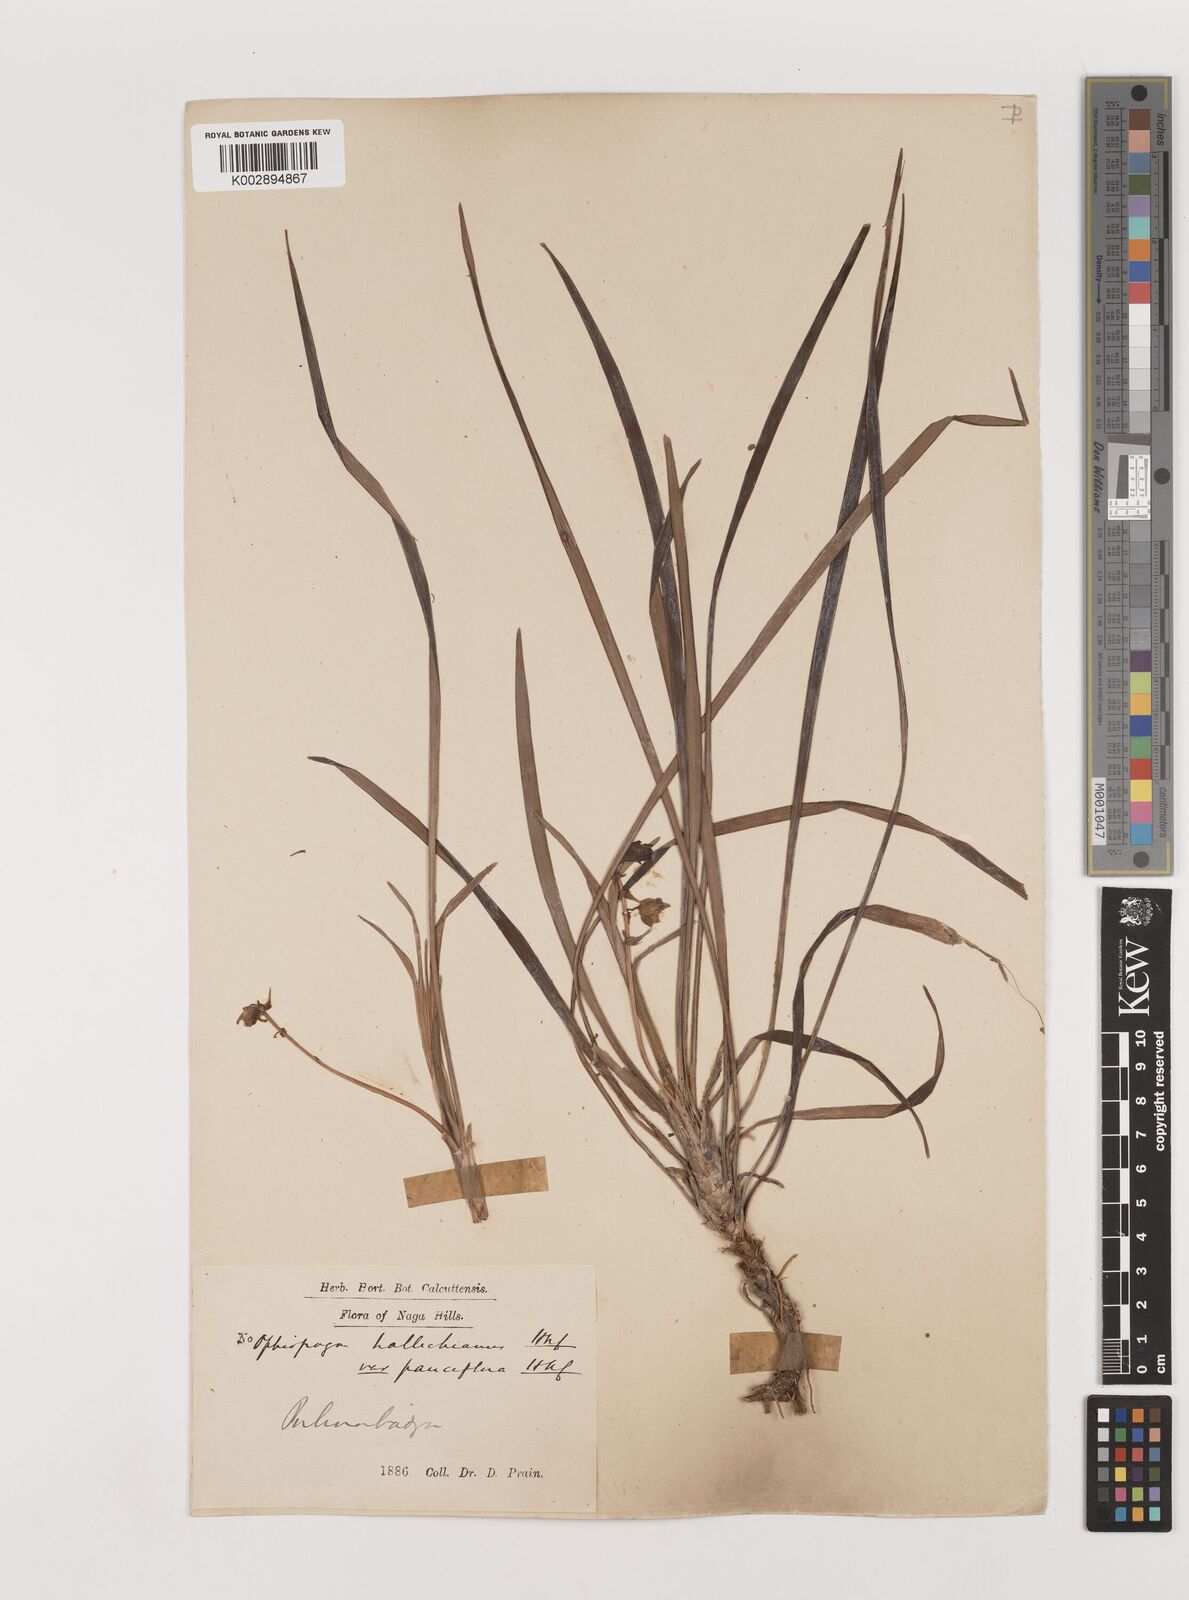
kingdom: Plantae
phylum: Tracheophyta
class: Liliopsida
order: Asparagales
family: Asparagaceae
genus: Ophiopogon
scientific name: Ophiopogon clarkei
